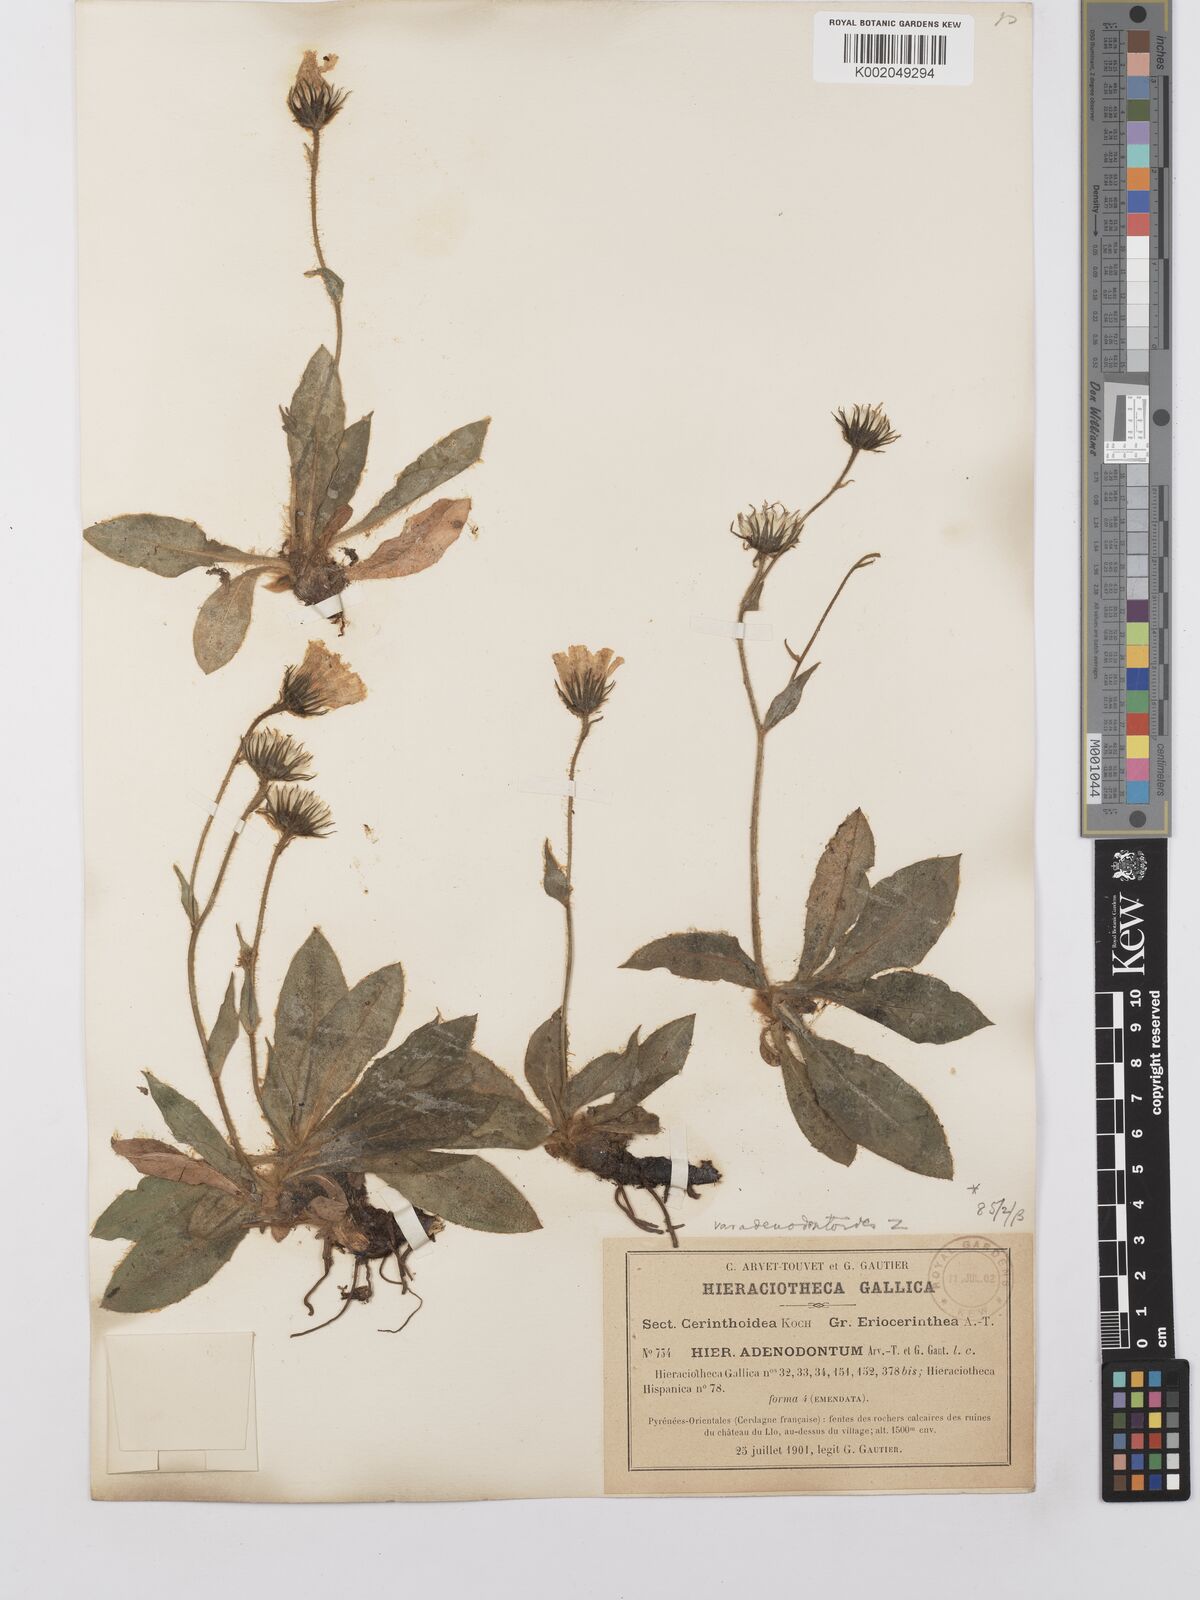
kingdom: Plantae
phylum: Tracheophyta
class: Magnoliopsida
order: Asterales
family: Asteraceae
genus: Hieracium
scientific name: Hieracium
